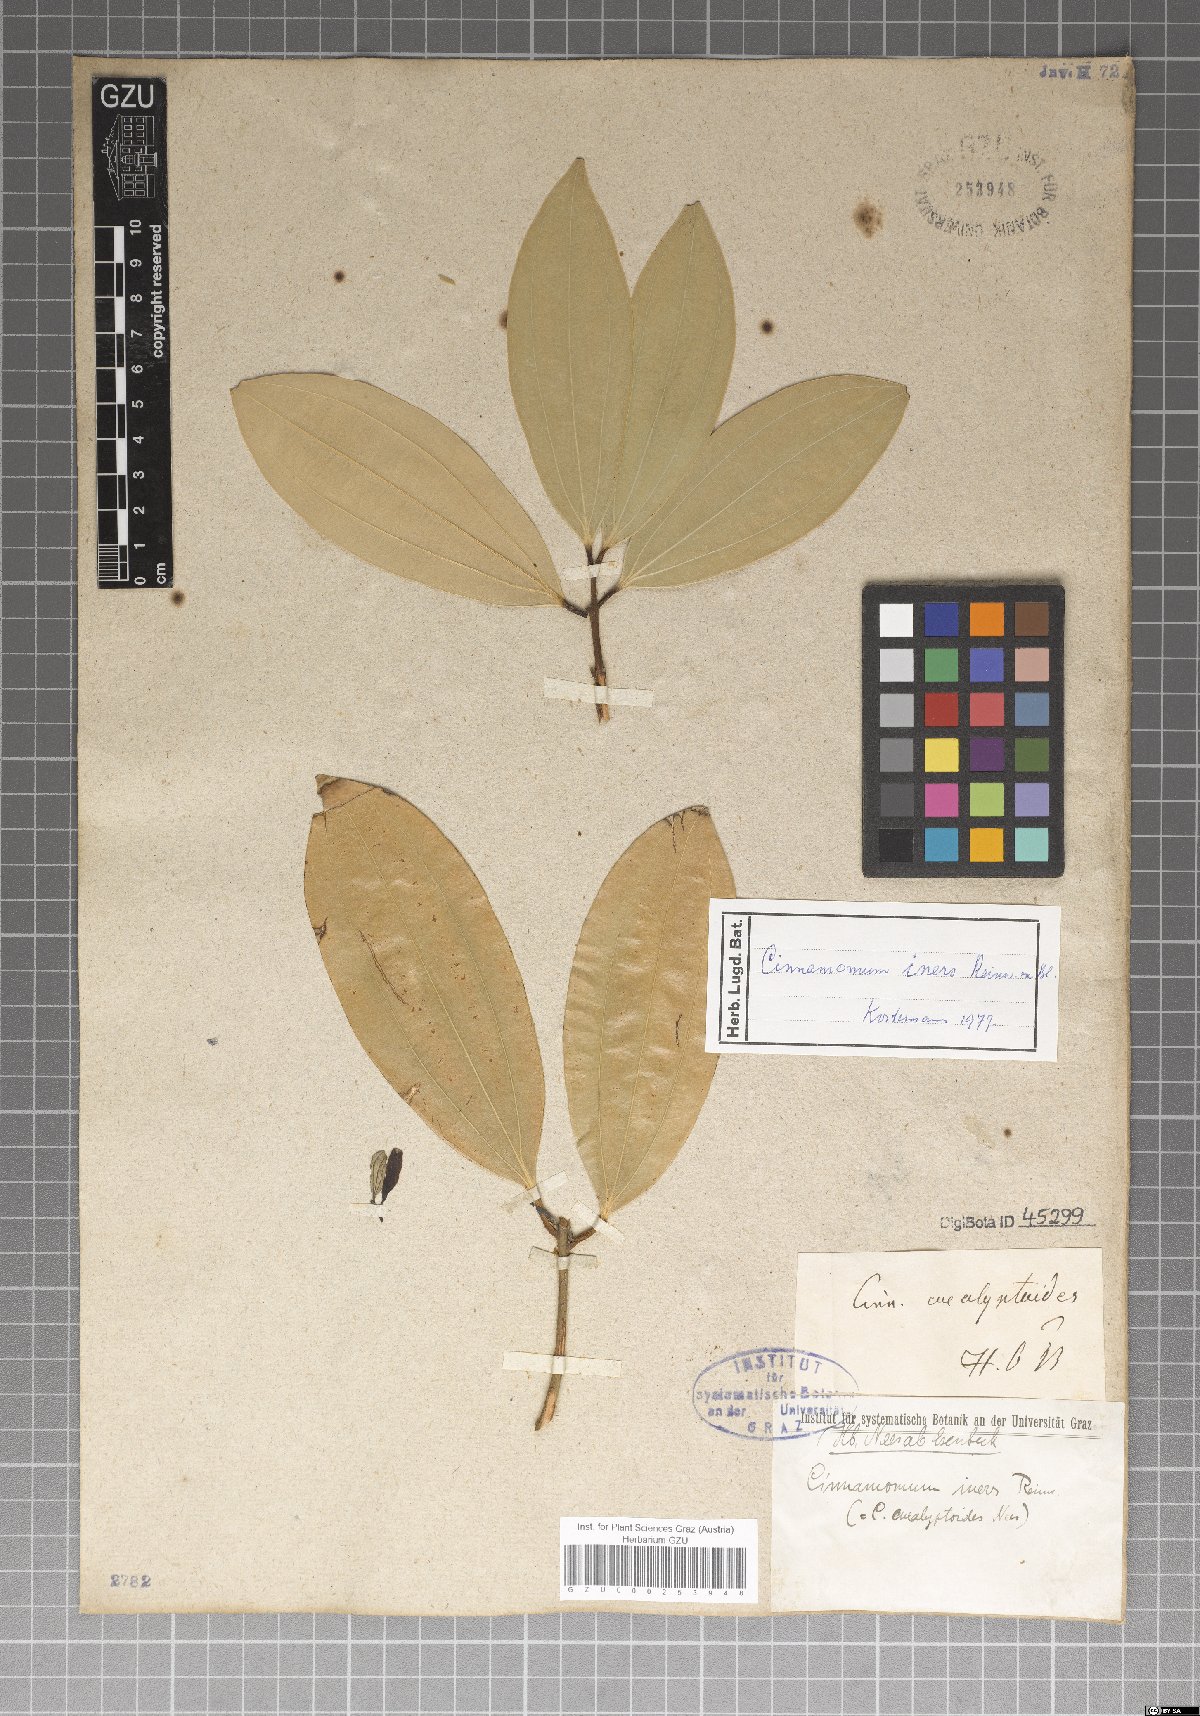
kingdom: Plantae
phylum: Tracheophyta
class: Magnoliopsida
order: Laurales
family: Lauraceae
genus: Cinnamomum
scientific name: Cinnamomum iners
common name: Wild cinnamon
